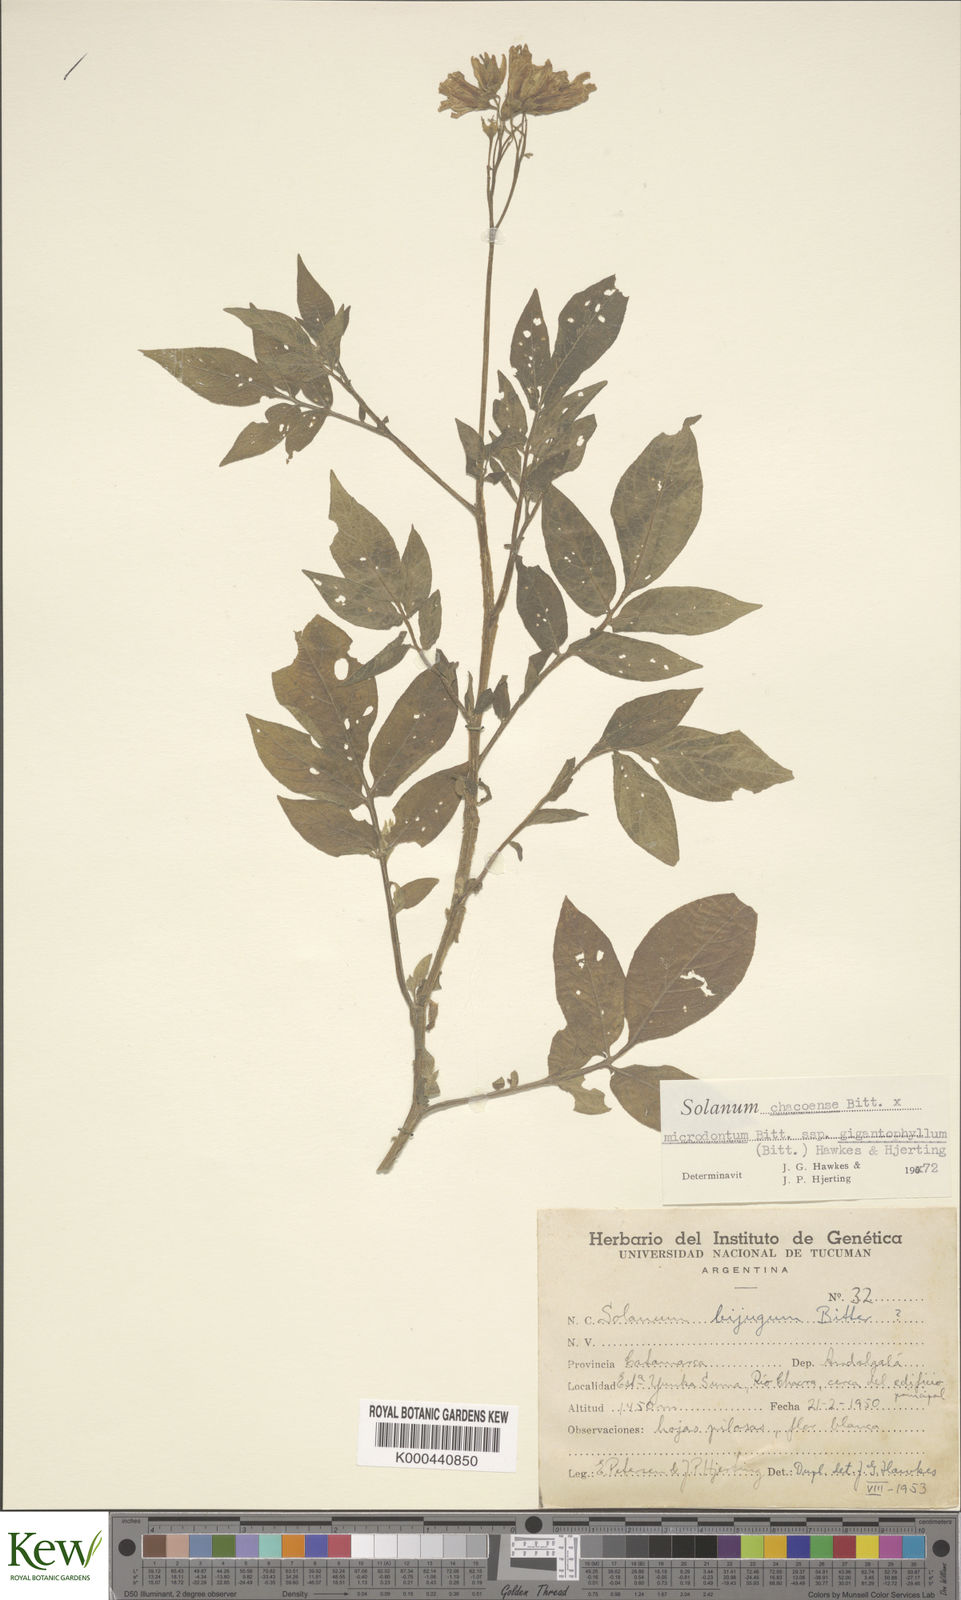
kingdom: Plantae
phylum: Tracheophyta
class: Magnoliopsida
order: Solanales
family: Solanaceae
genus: Solanum
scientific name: Solanum microdontum
